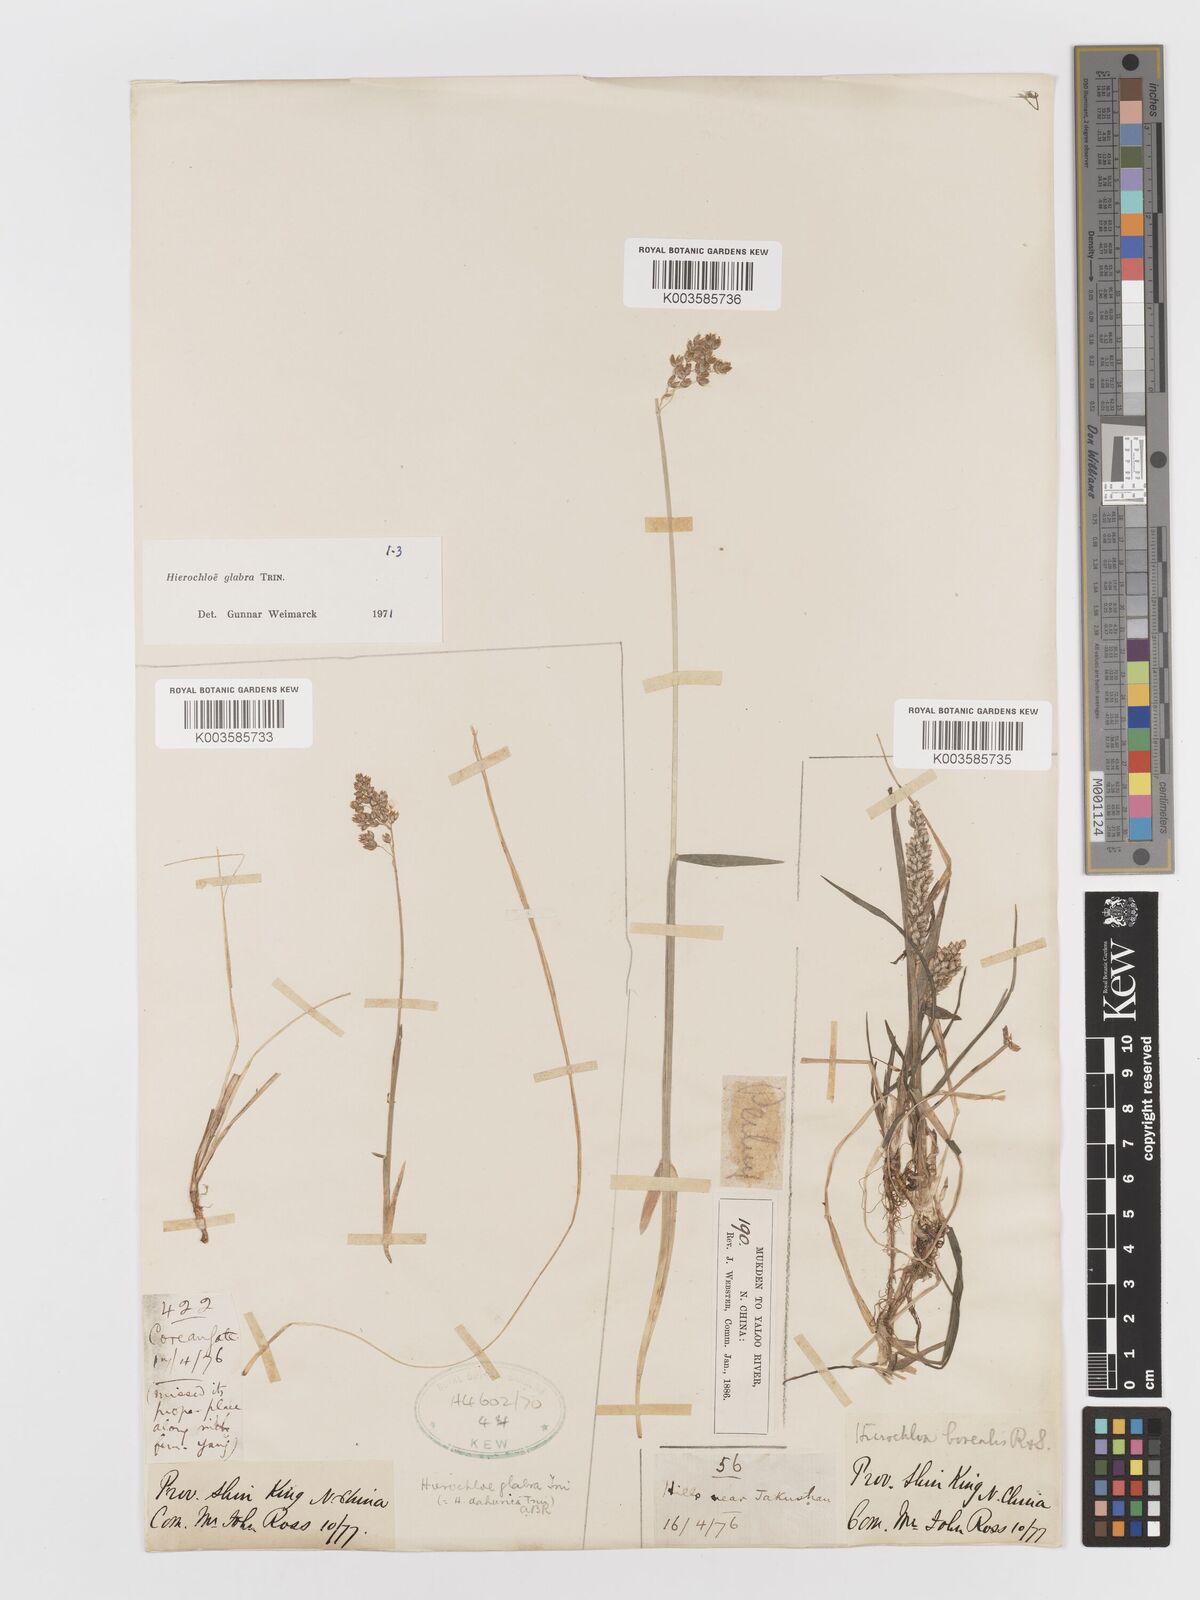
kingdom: Plantae
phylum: Tracheophyta
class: Liliopsida
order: Poales
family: Poaceae
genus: Anthoxanthum
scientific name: Anthoxanthum glabrum
